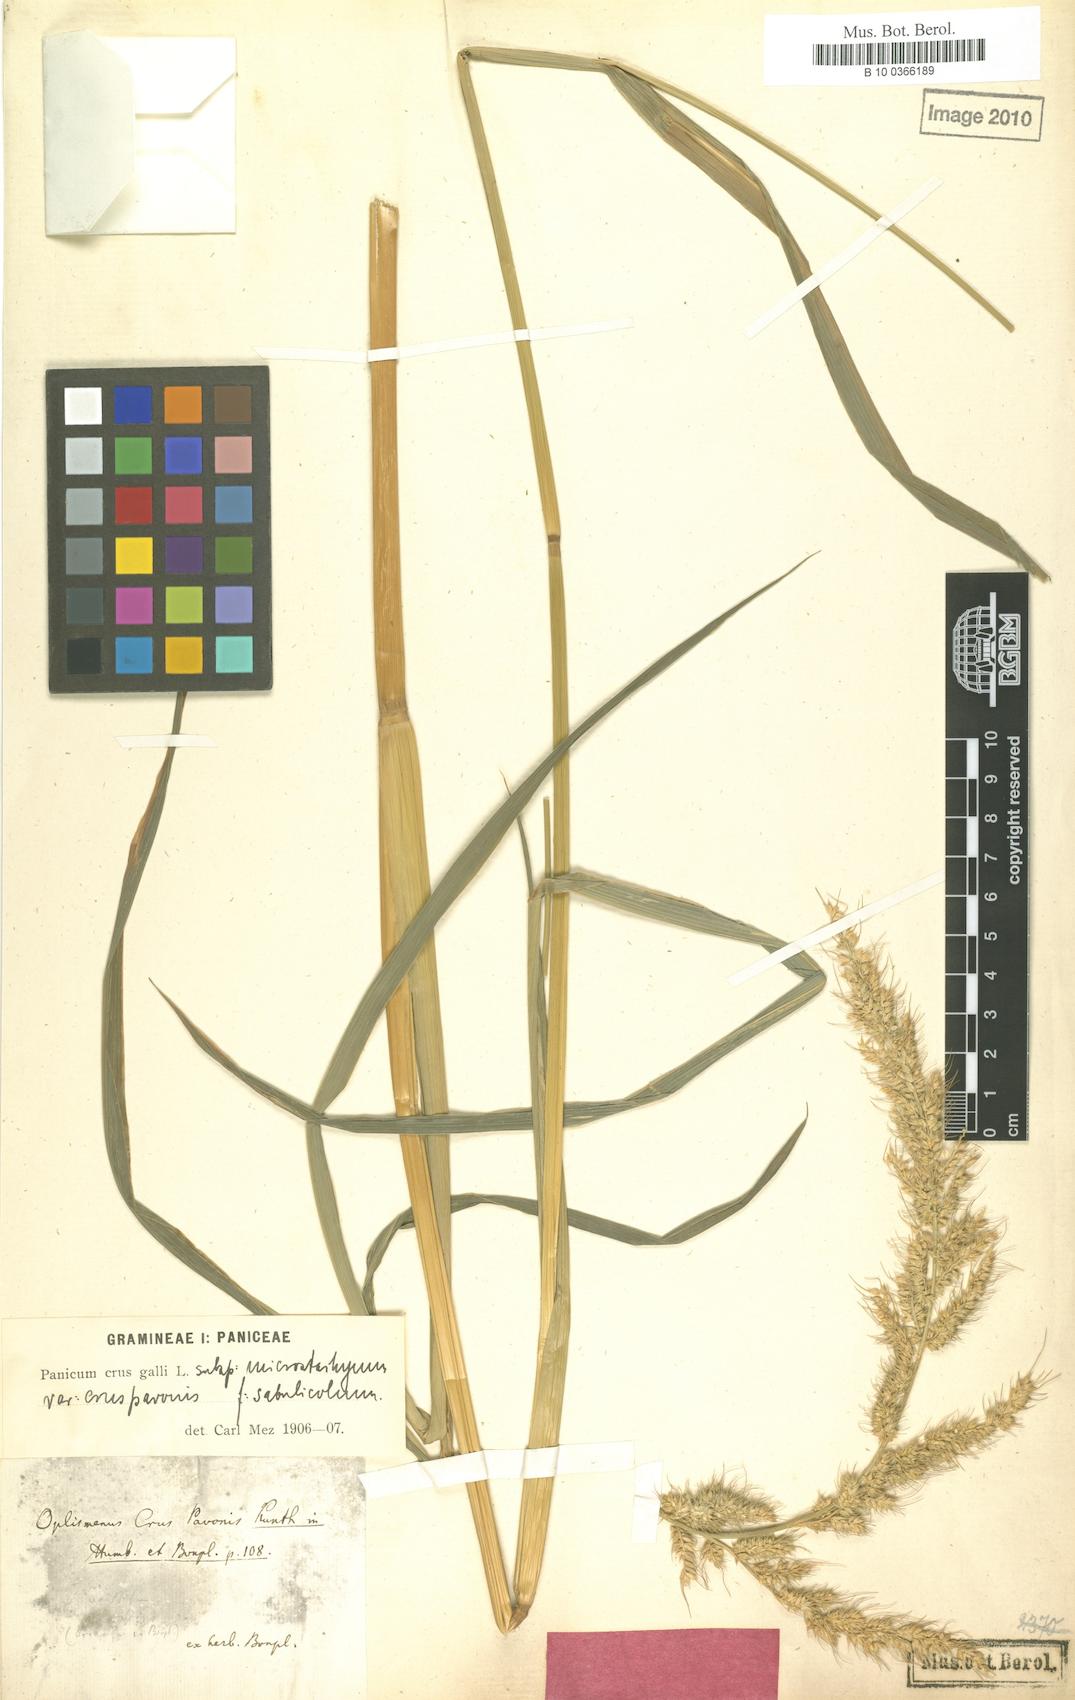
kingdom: Plantae
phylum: Tracheophyta
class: Liliopsida
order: Poales
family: Poaceae
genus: Echinochloa
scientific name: Echinochloa crus-pavonis
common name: Gulf cockspur grass
